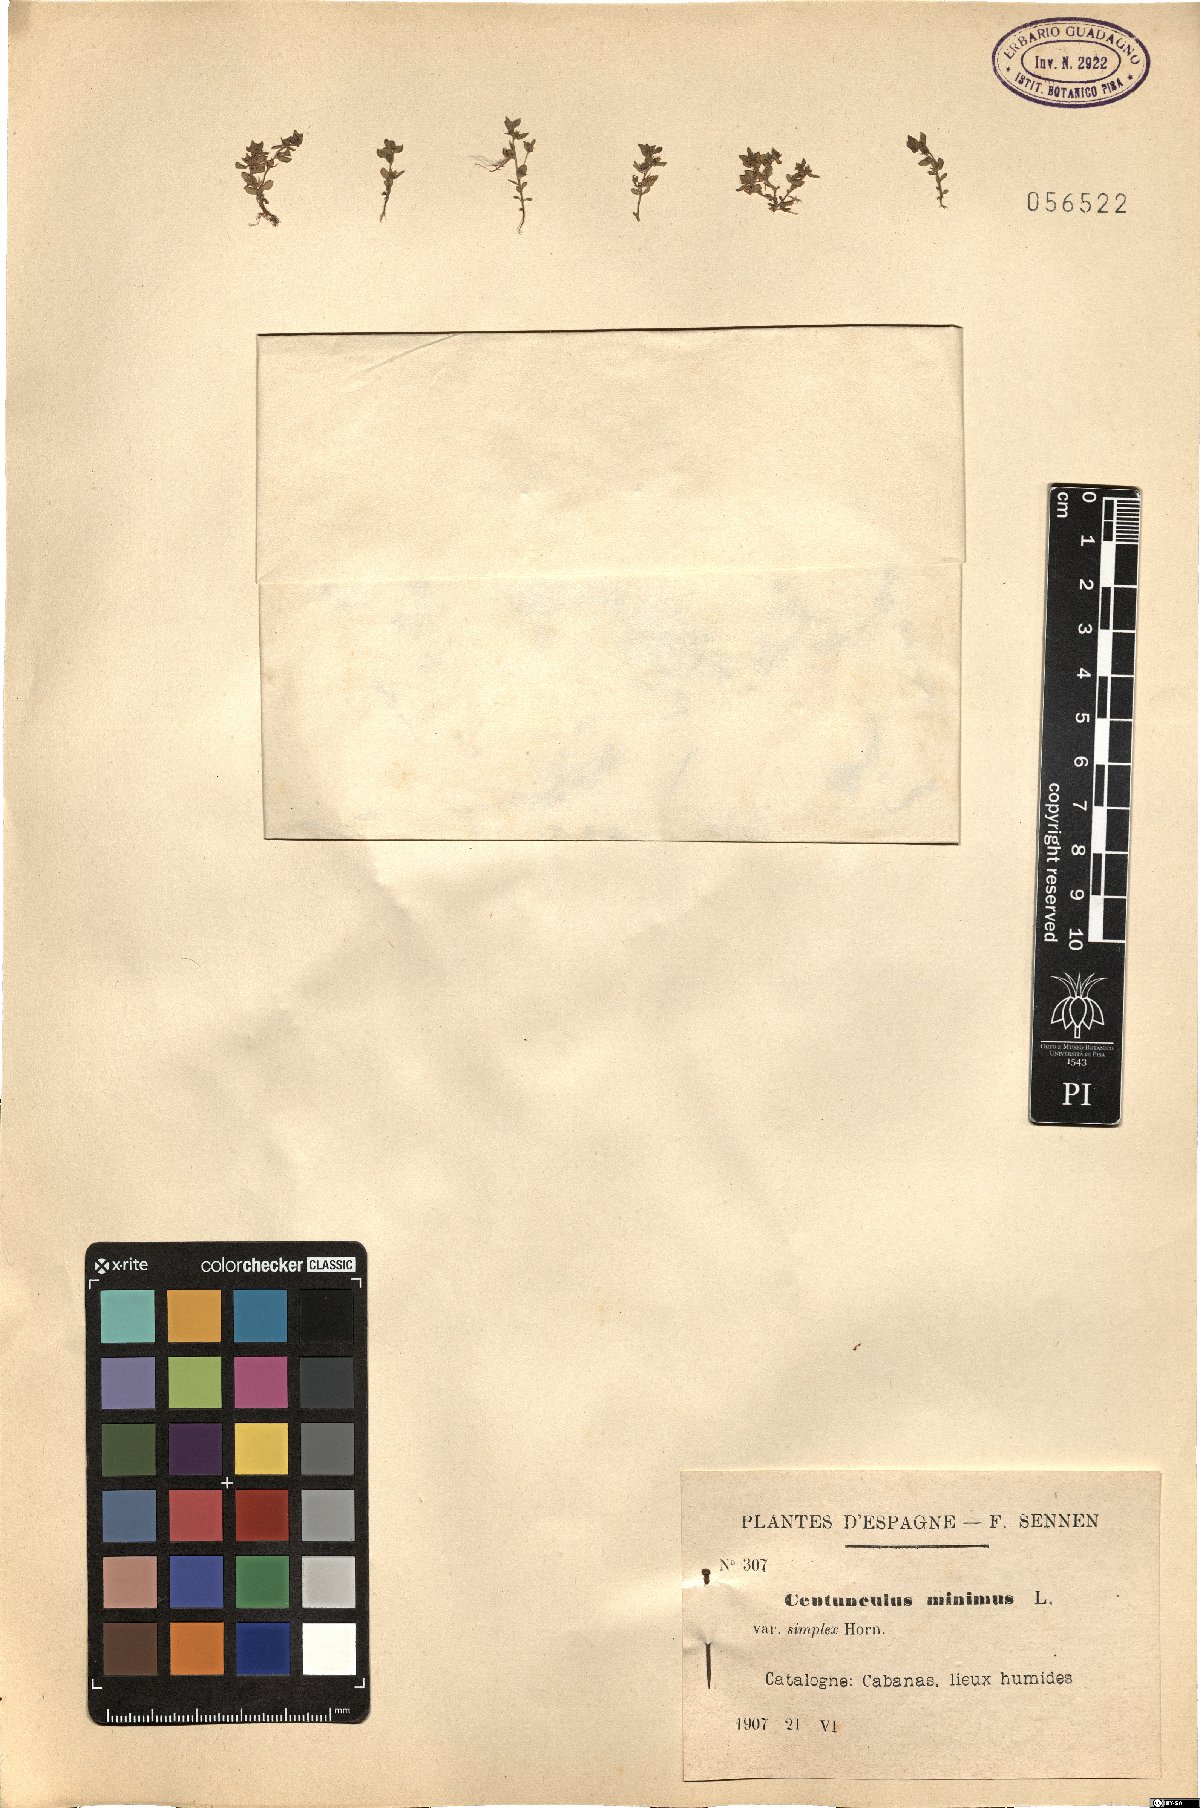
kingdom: Plantae
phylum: Tracheophyta
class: Magnoliopsida
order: Ericales
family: Primulaceae
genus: Lysimachia
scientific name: Lysimachia minima
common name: Chaffweed
